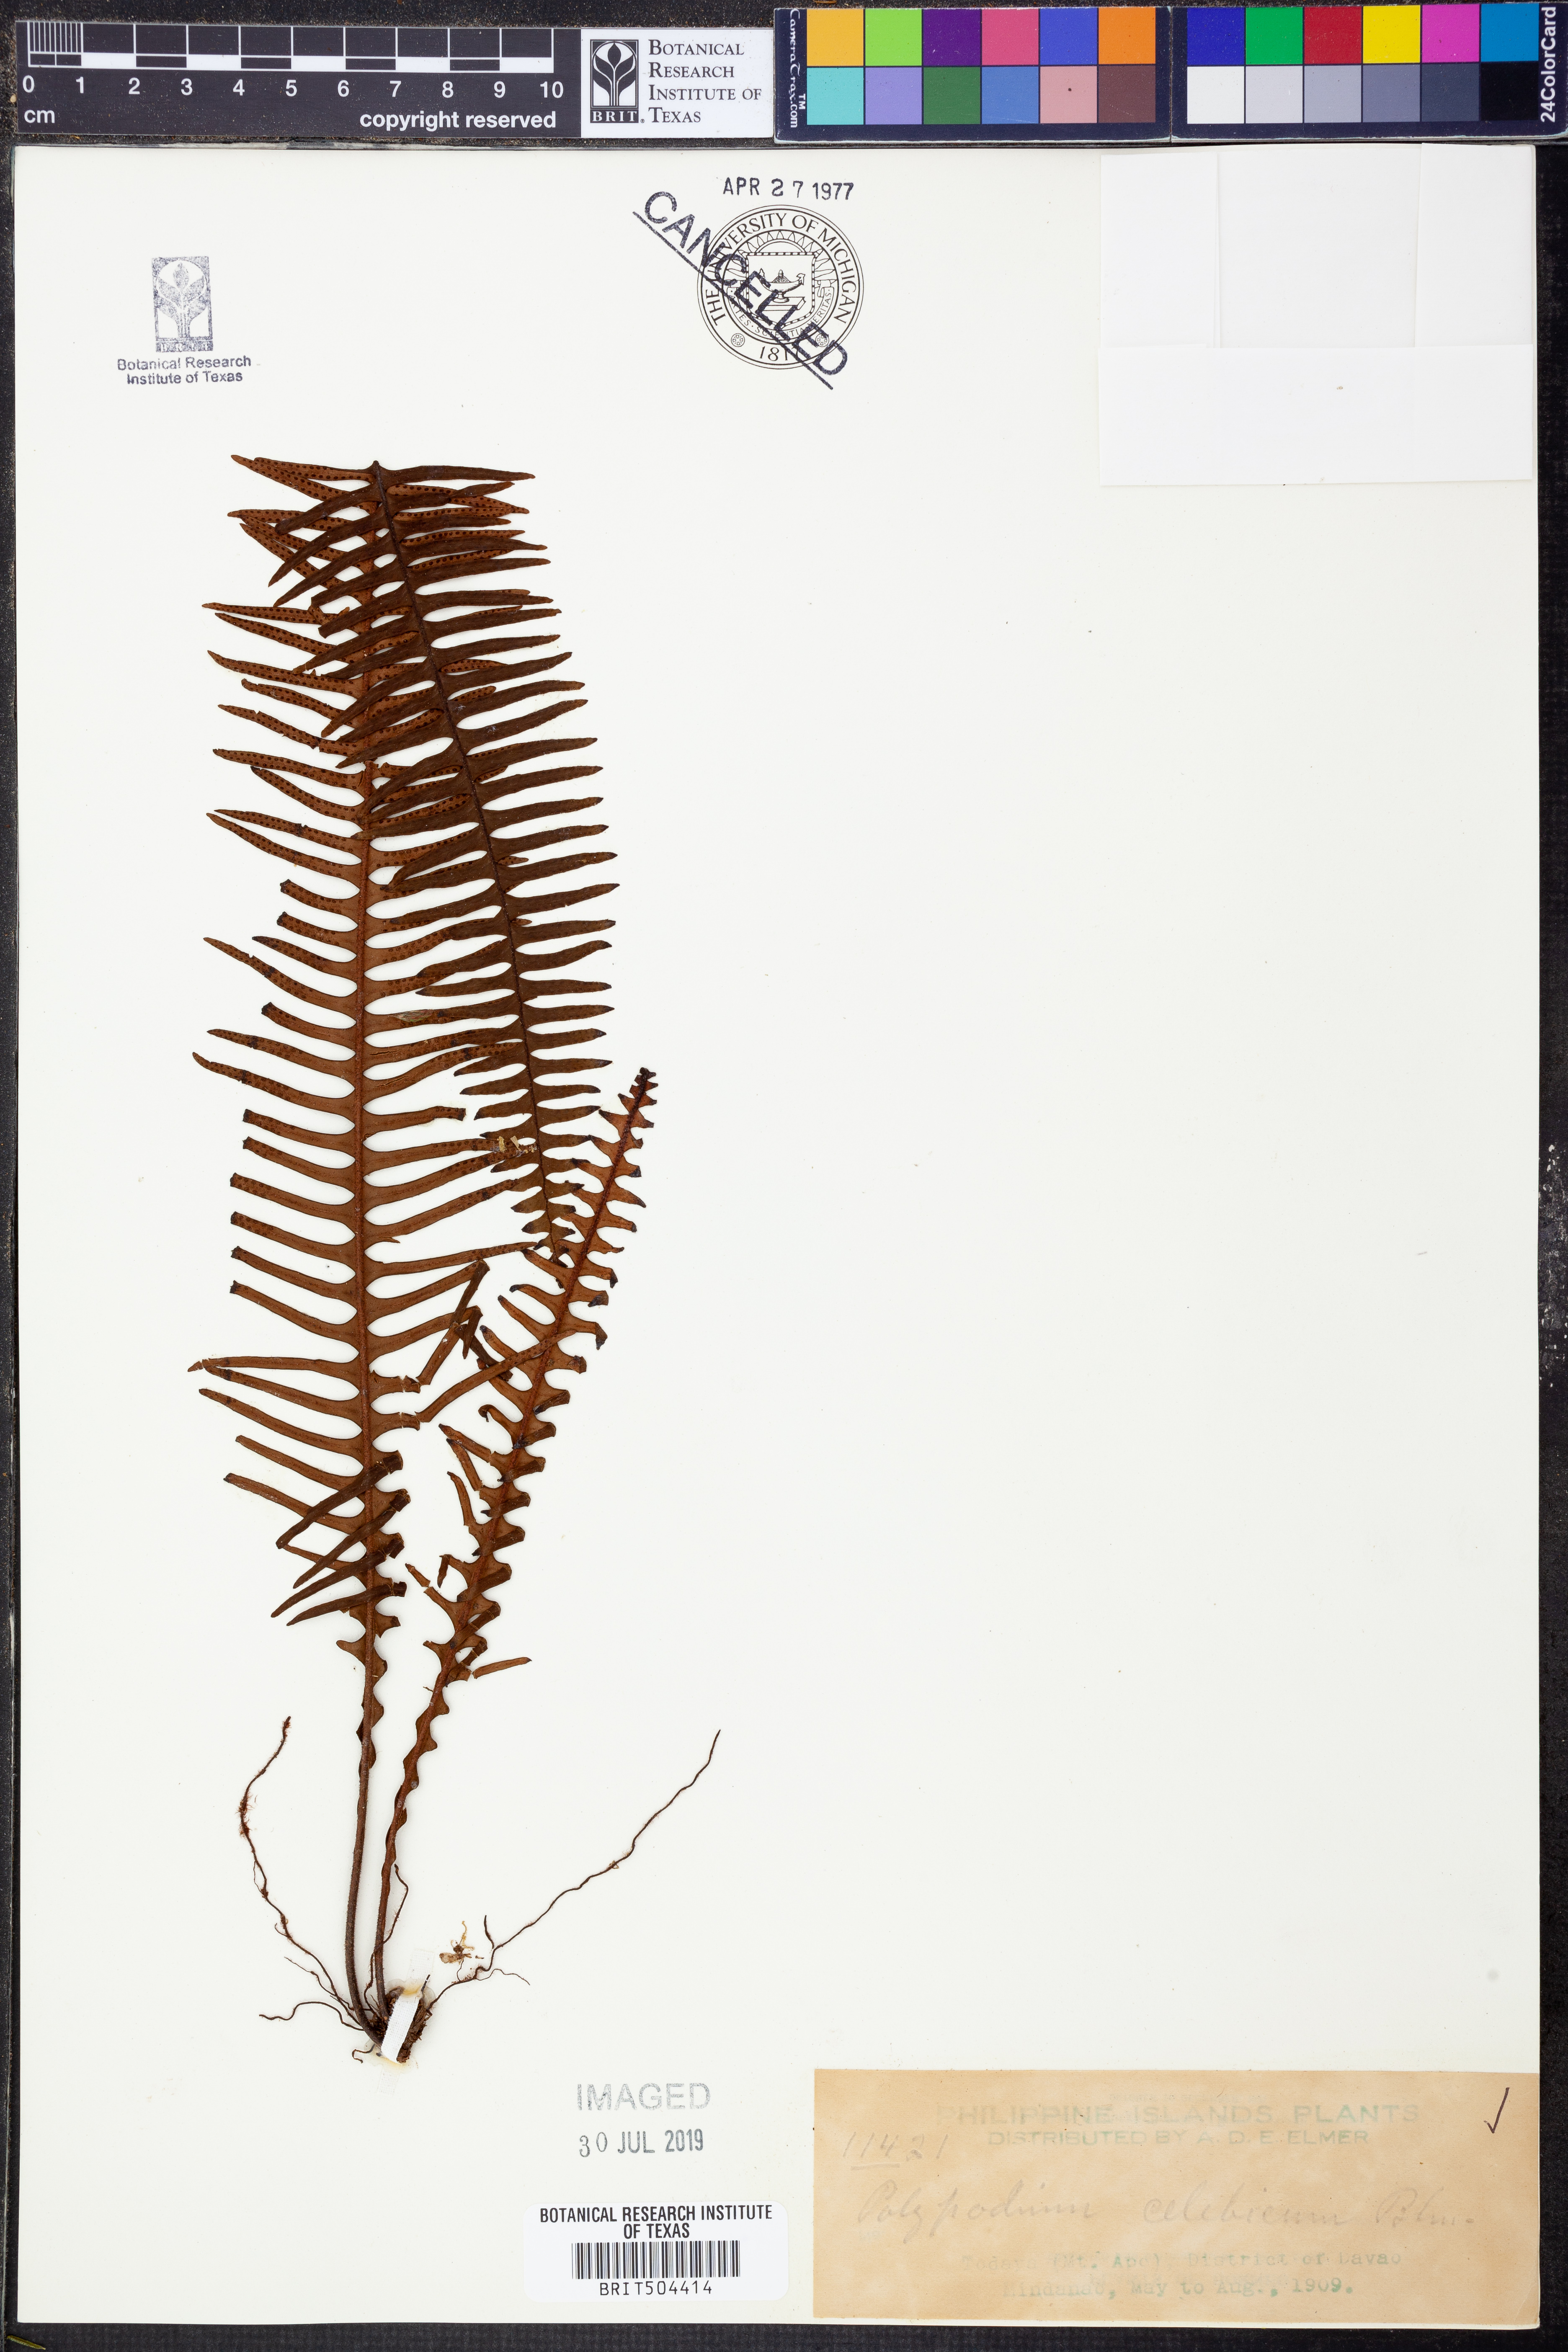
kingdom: Plantae
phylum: Tracheophyta
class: Polypodiopsida
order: Polypodiales
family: Polypodiaceae
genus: Prosaptia
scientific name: Prosaptia celebica
